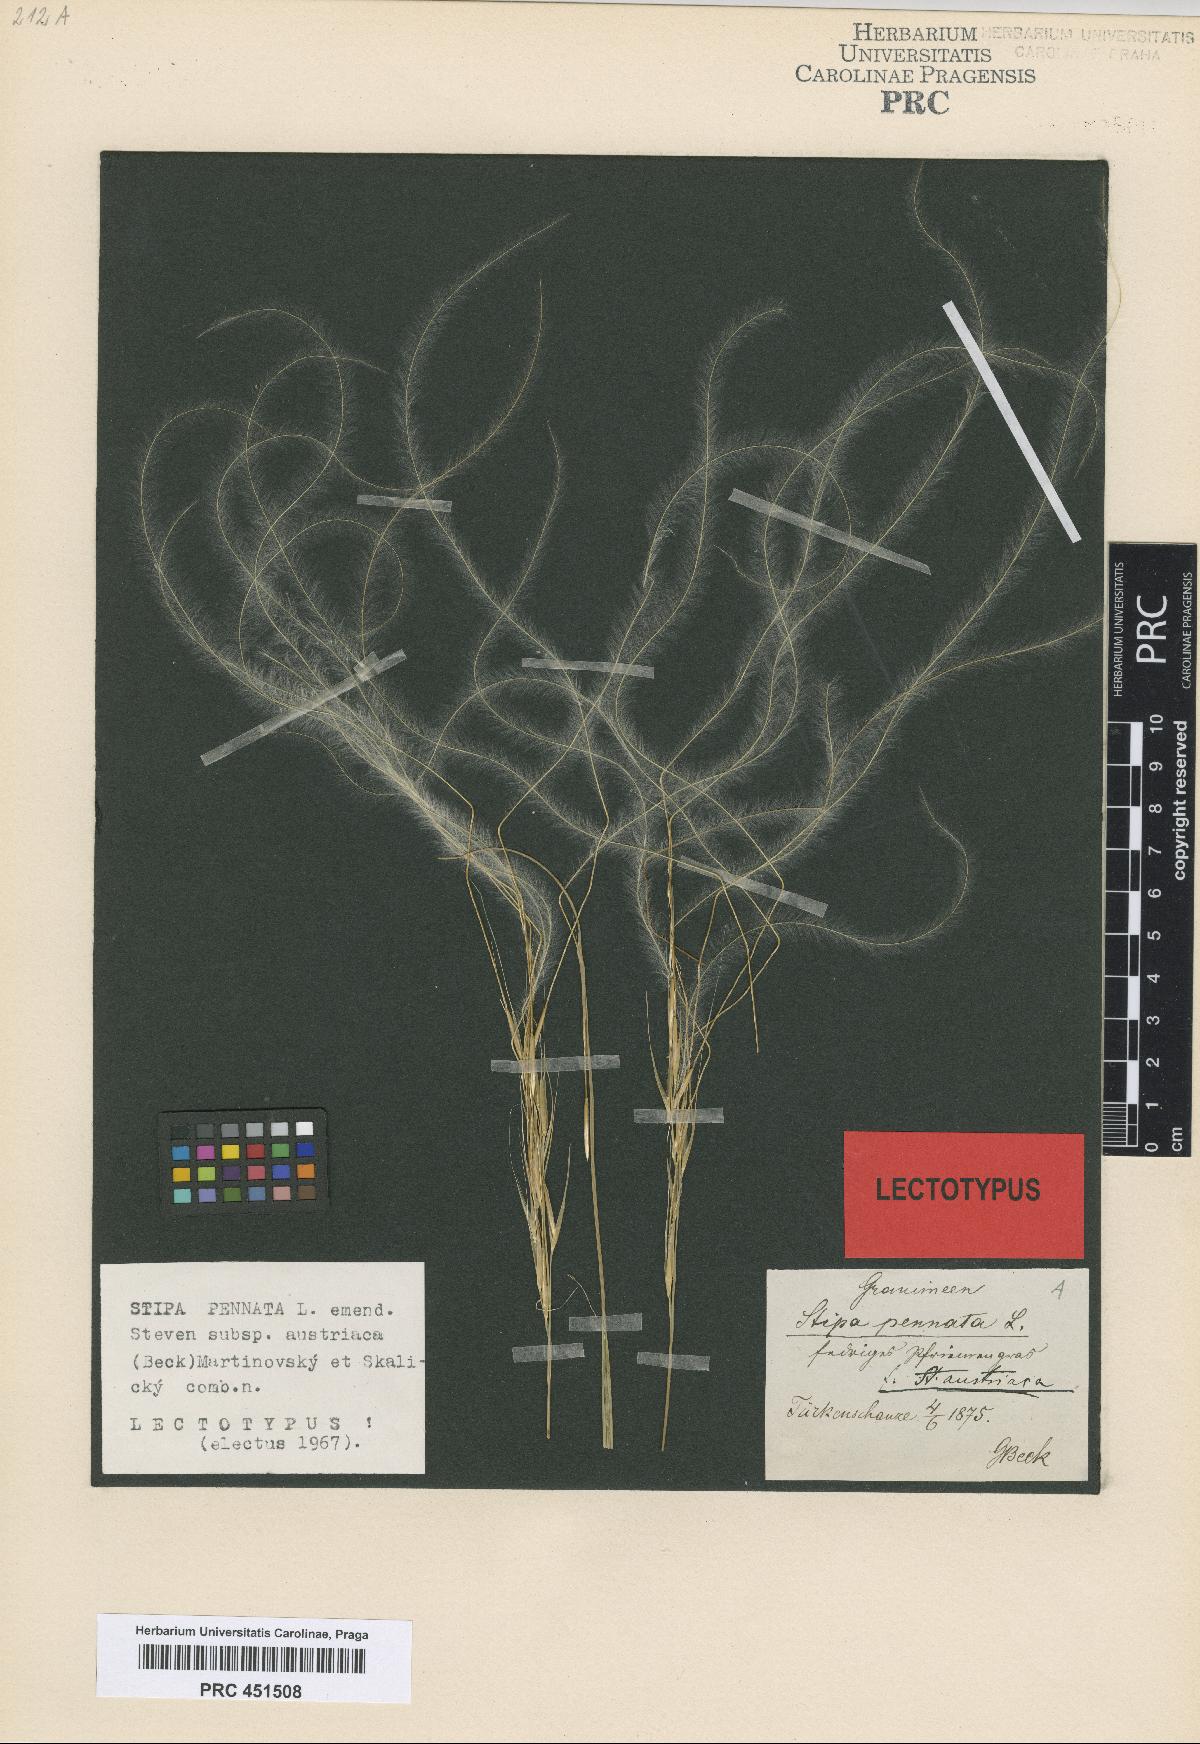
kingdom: Plantae
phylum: Tracheophyta
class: Liliopsida
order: Poales
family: Poaceae
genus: Stipa
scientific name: Stipa pennata
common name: European feather grass
